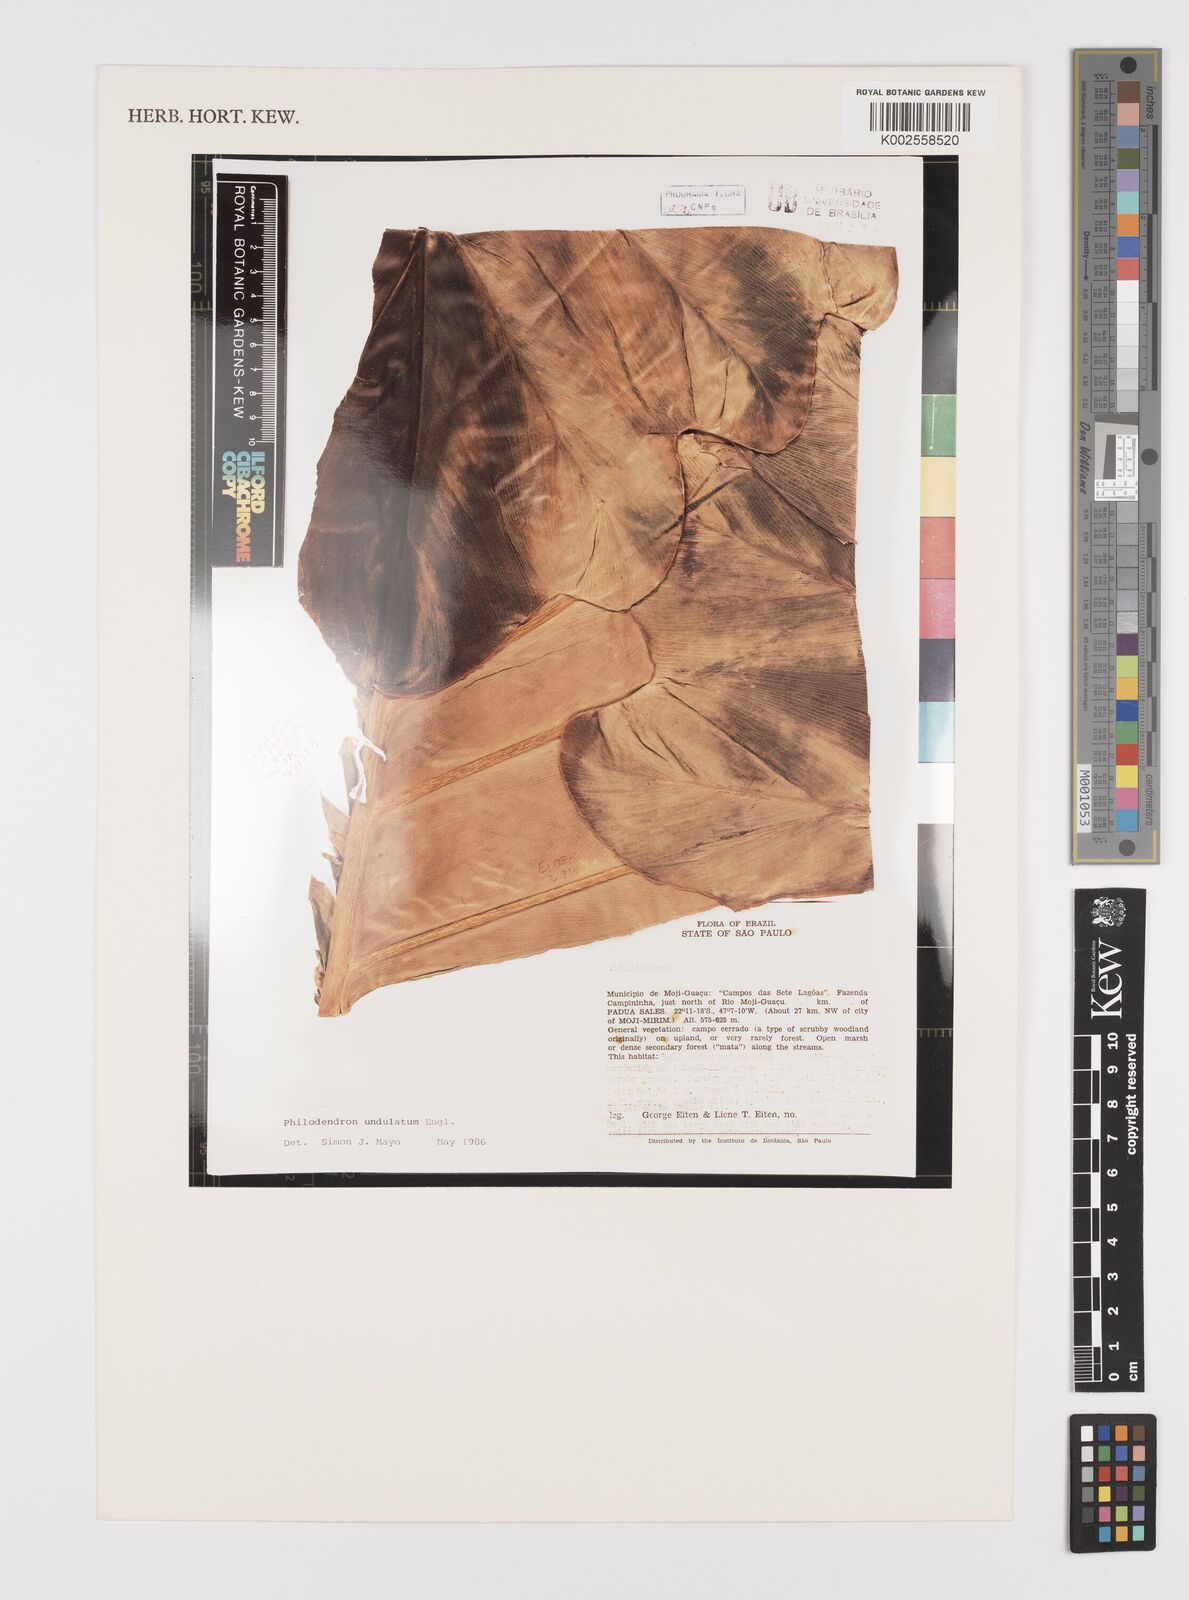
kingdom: Plantae
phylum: Tracheophyta
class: Liliopsida
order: Alismatales
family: Araceae
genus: Thaumatophyllum
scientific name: Thaumatophyllum undulatum
